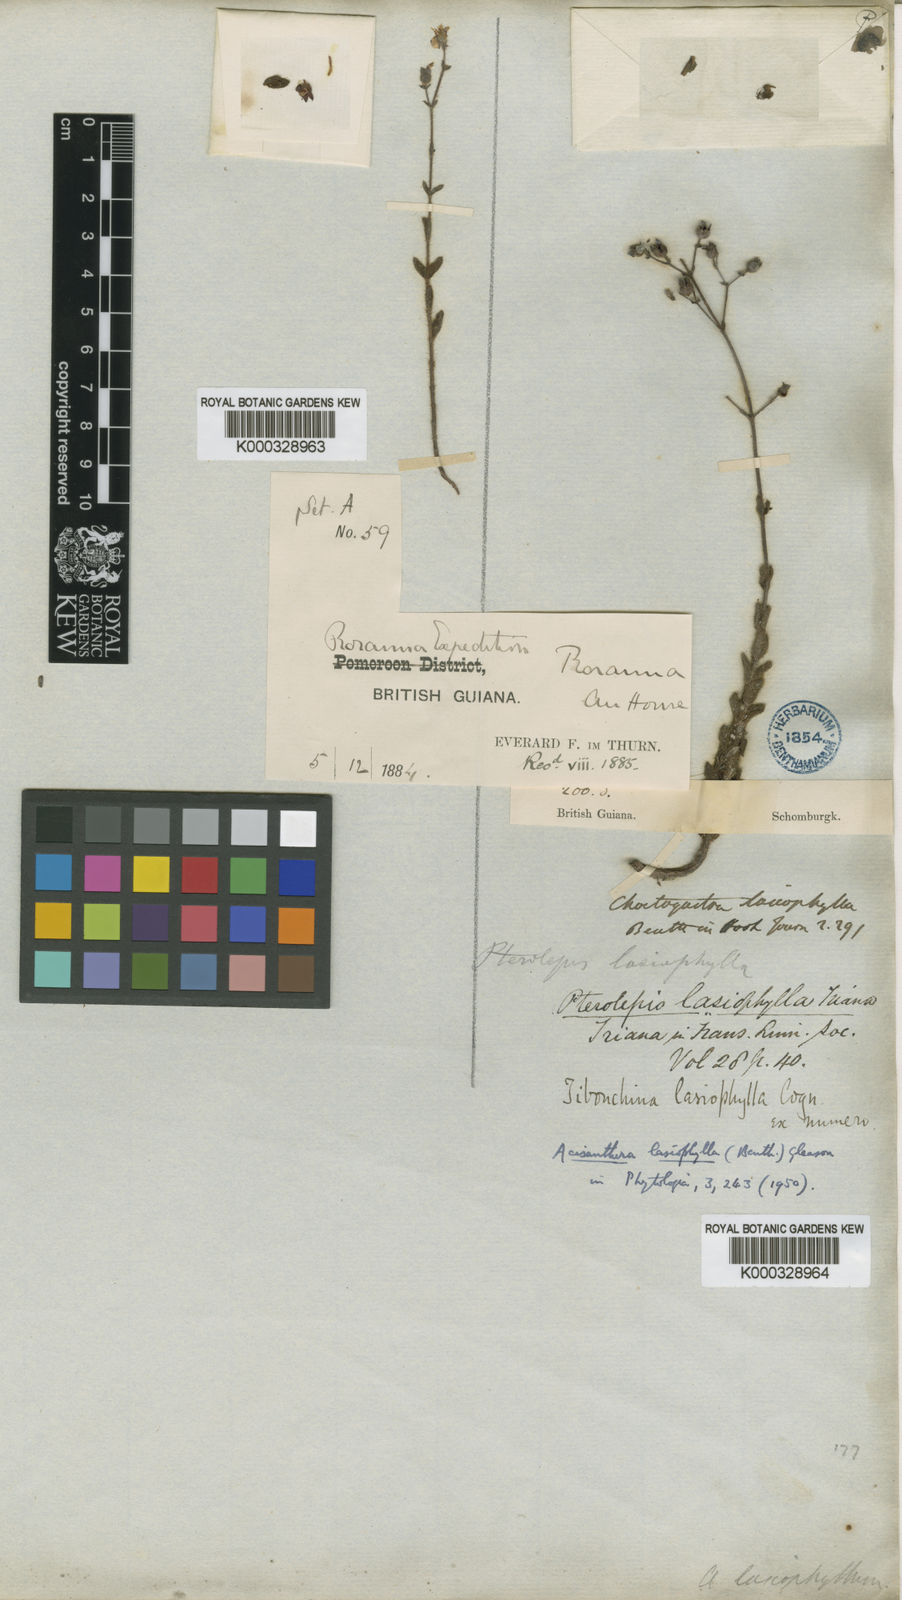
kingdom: Plantae
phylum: Tracheophyta
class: Magnoliopsida
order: Myrtales
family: Melastomataceae
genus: Macairea
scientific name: Macairea lasiophylla
